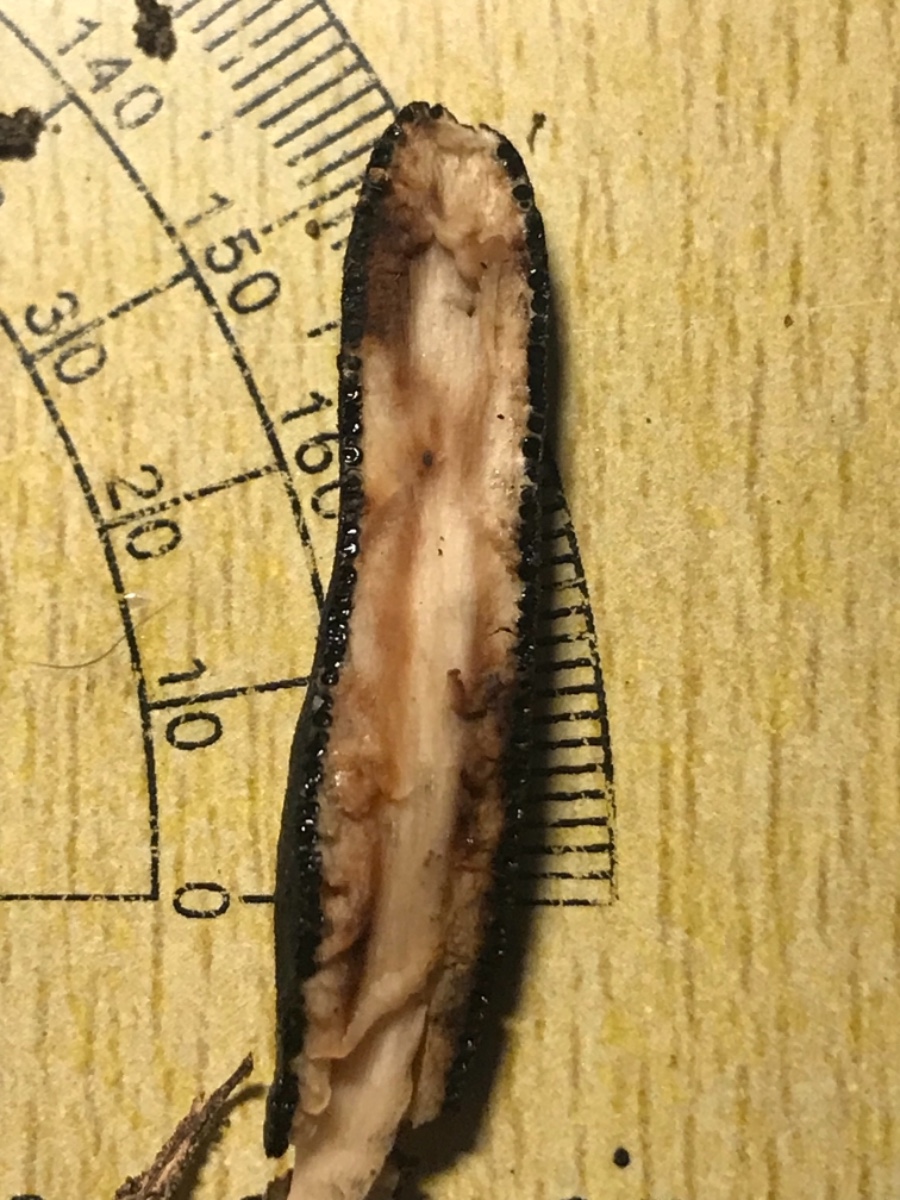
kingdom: Fungi
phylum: Ascomycota
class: Sordariomycetes
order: Xylariales
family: Xylariaceae
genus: Xylaria
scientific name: Xylaria polymorpha
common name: kølle-stødsvamp
